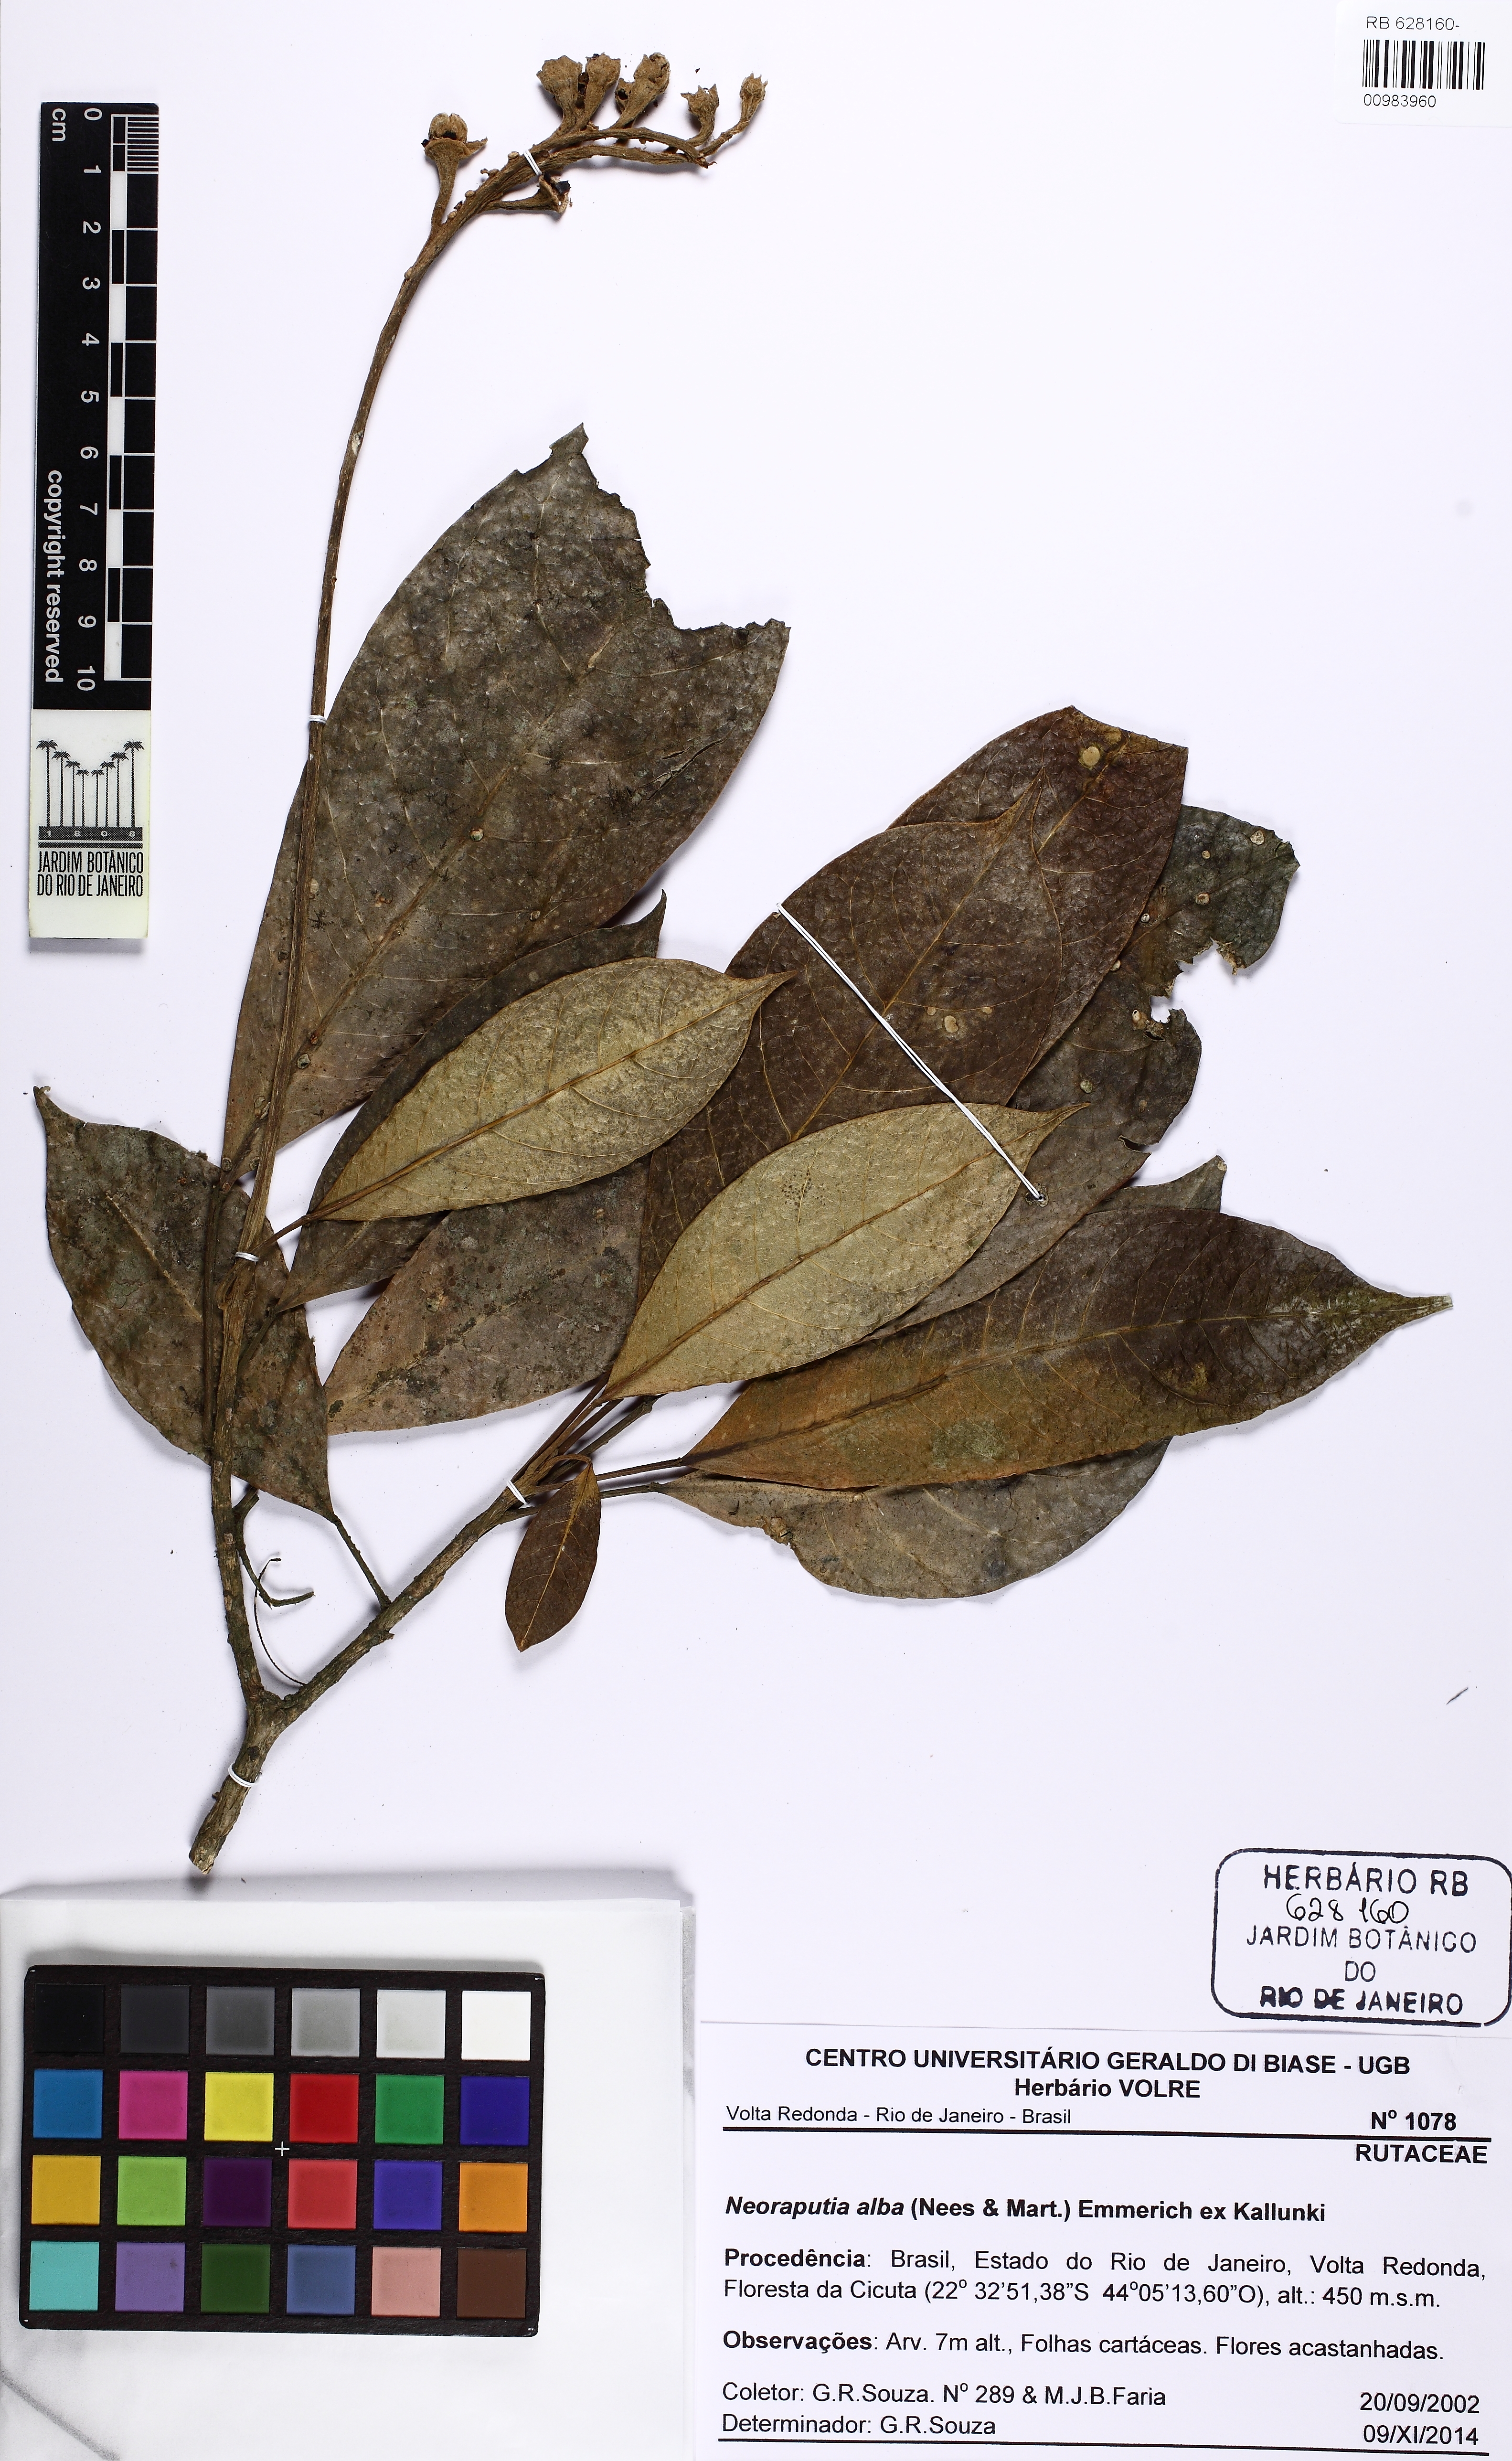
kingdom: Plantae
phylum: Tracheophyta
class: Magnoliopsida
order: Sapindales
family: Rutaceae
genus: Neoraputia
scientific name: Neoraputia alba
